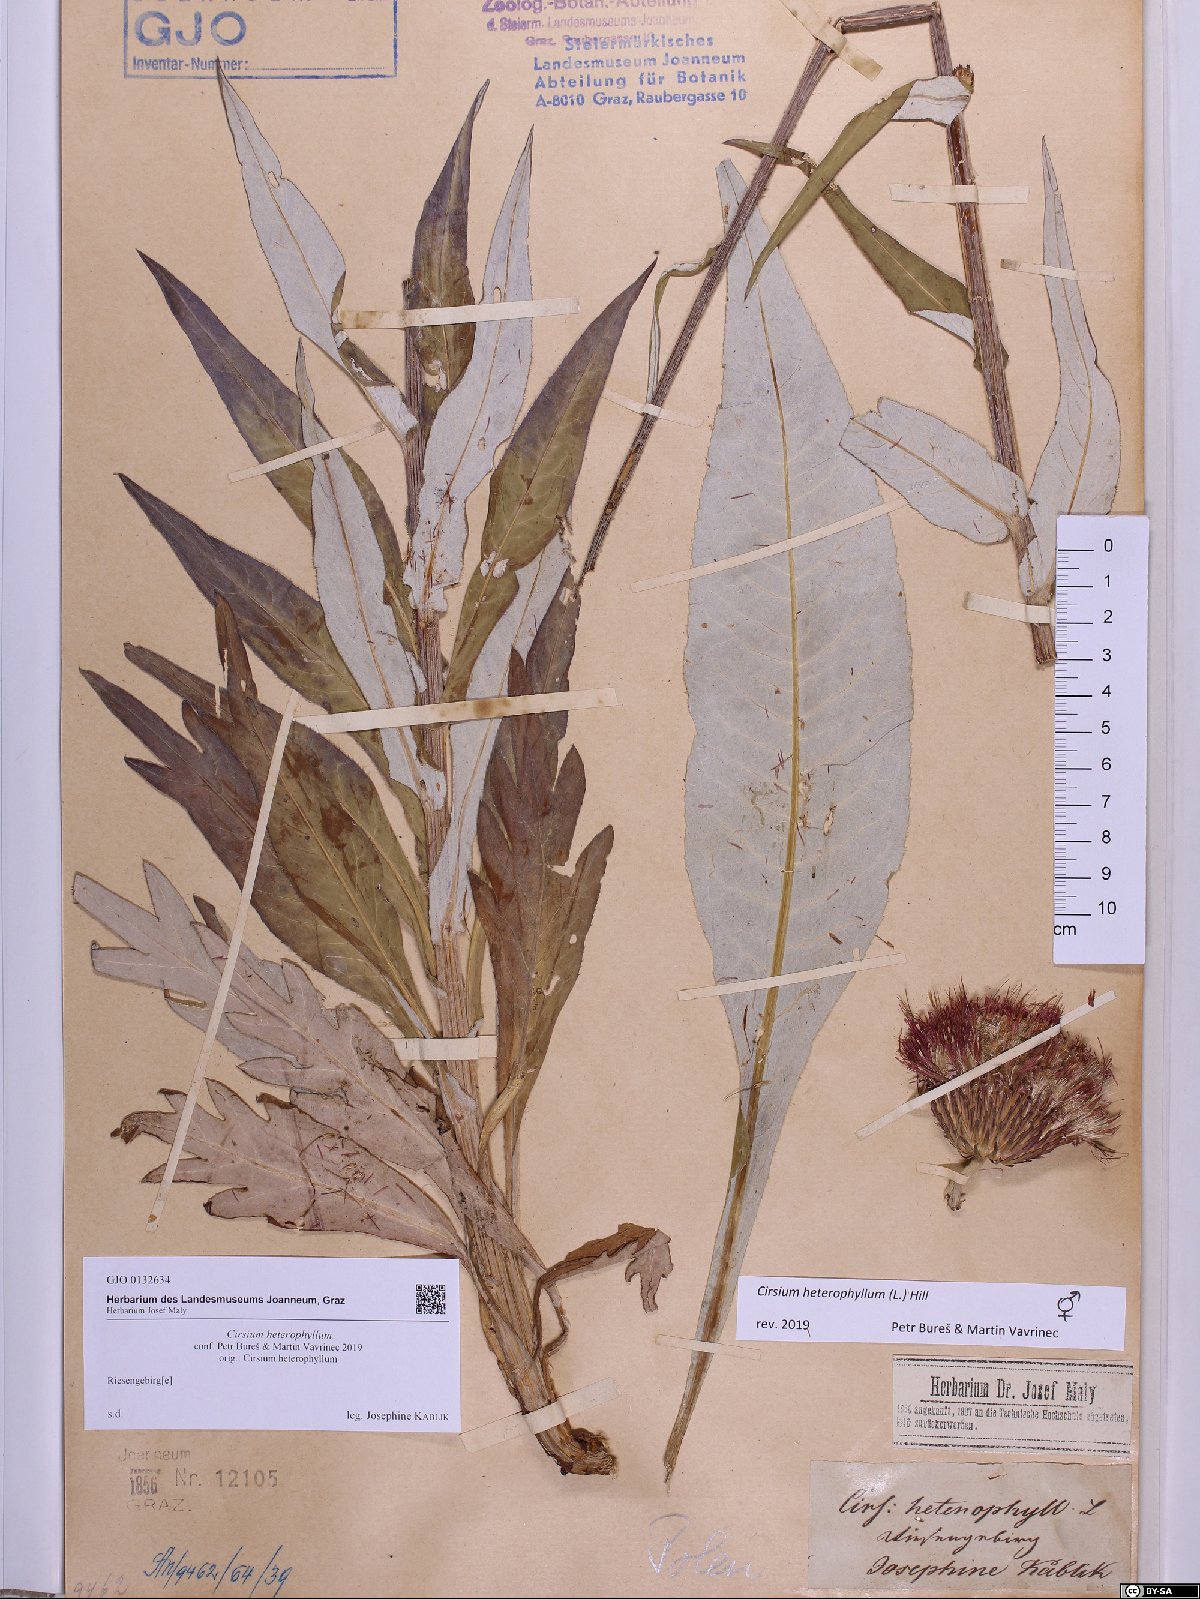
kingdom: Plantae
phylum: Tracheophyta
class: Magnoliopsida
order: Asterales
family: Asteraceae
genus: Cirsium
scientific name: Cirsium heterophyllum
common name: Melancholy thistle
